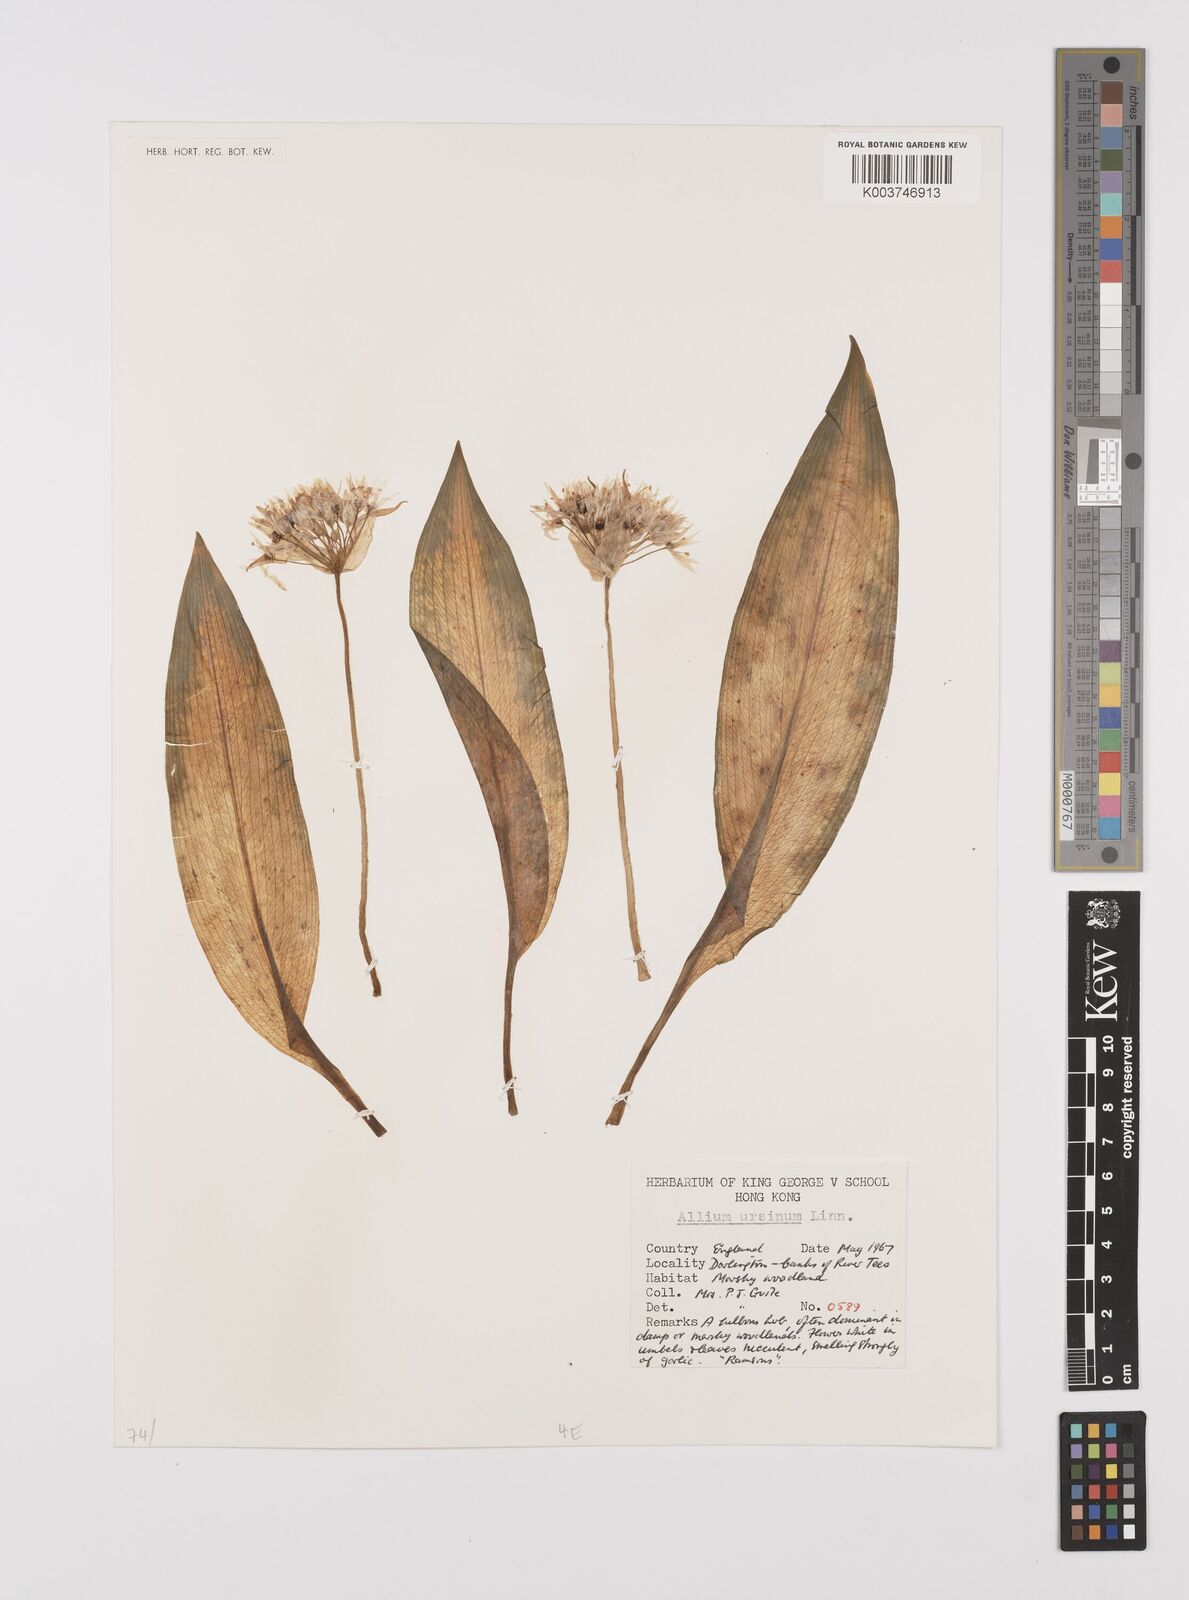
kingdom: Plantae
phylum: Tracheophyta
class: Liliopsida
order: Asparagales
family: Amaryllidaceae
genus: Allium
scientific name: Allium ursinum
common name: Ramsons
